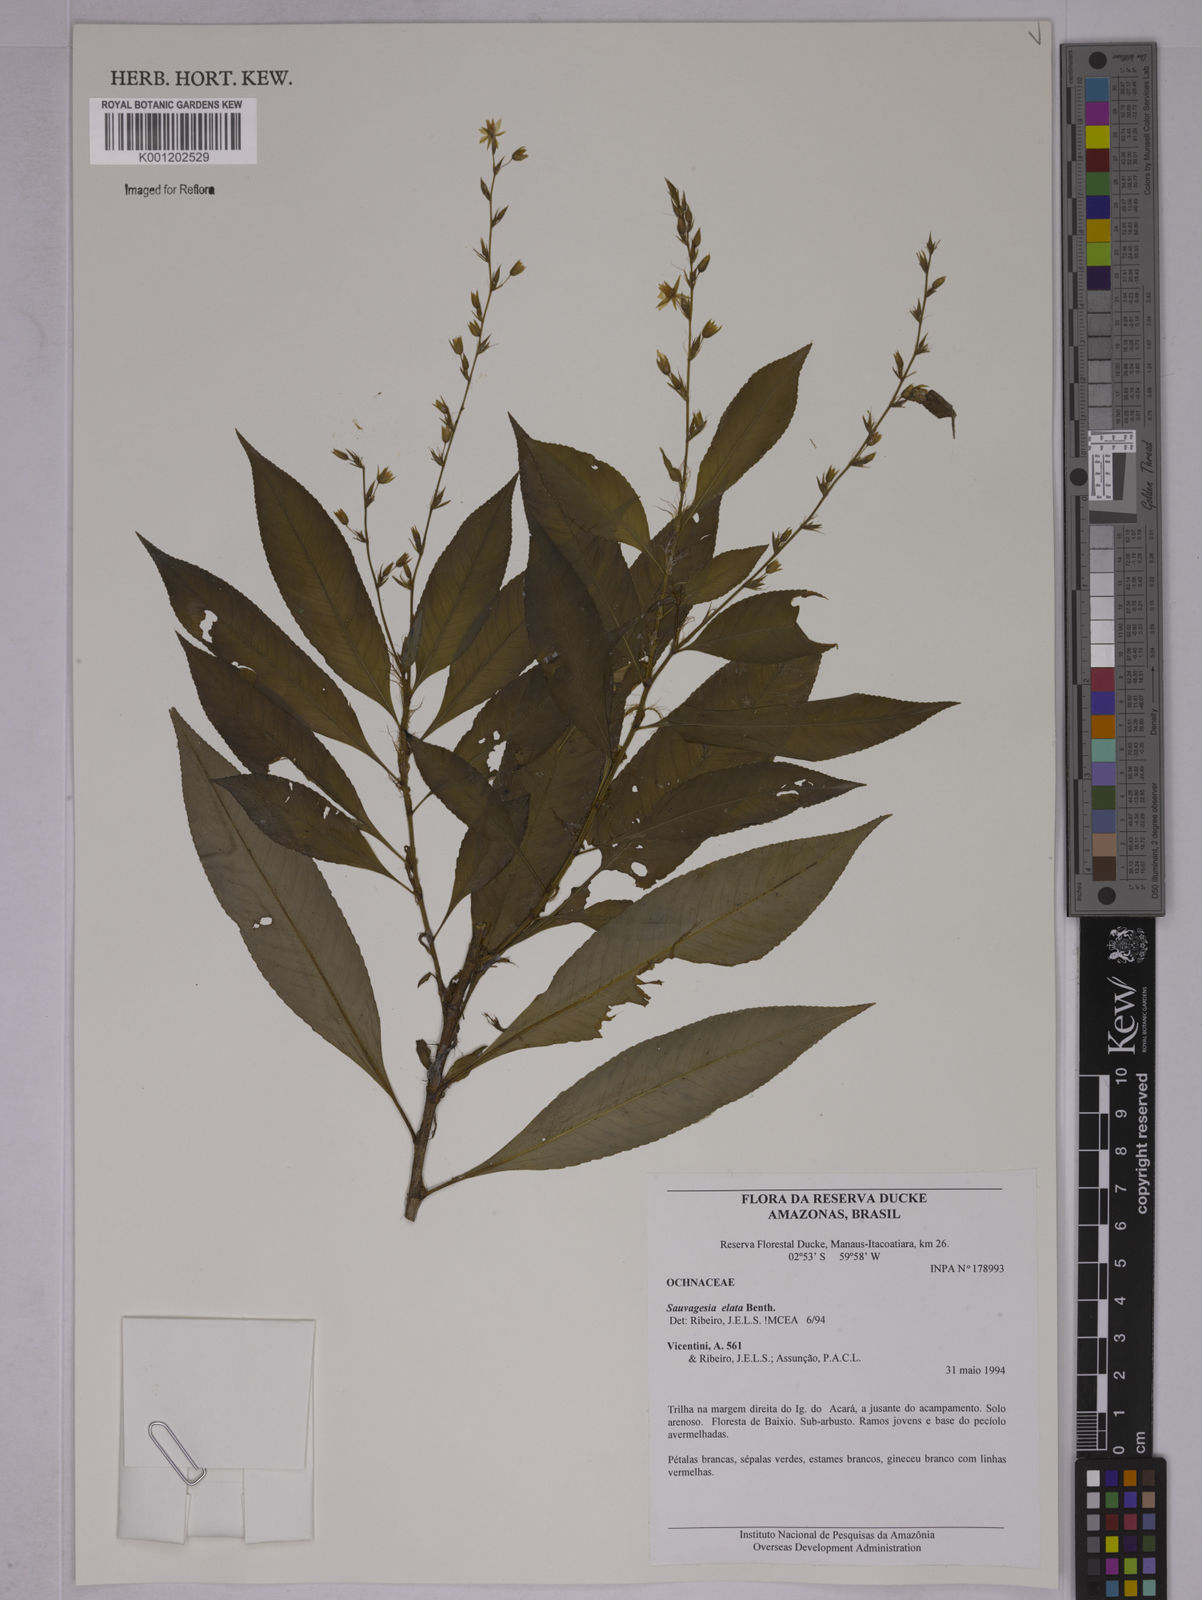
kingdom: Plantae
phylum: Tracheophyta
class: Magnoliopsida
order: Malpighiales
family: Ochnaceae
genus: Sauvagesia
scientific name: Sauvagesia elata
